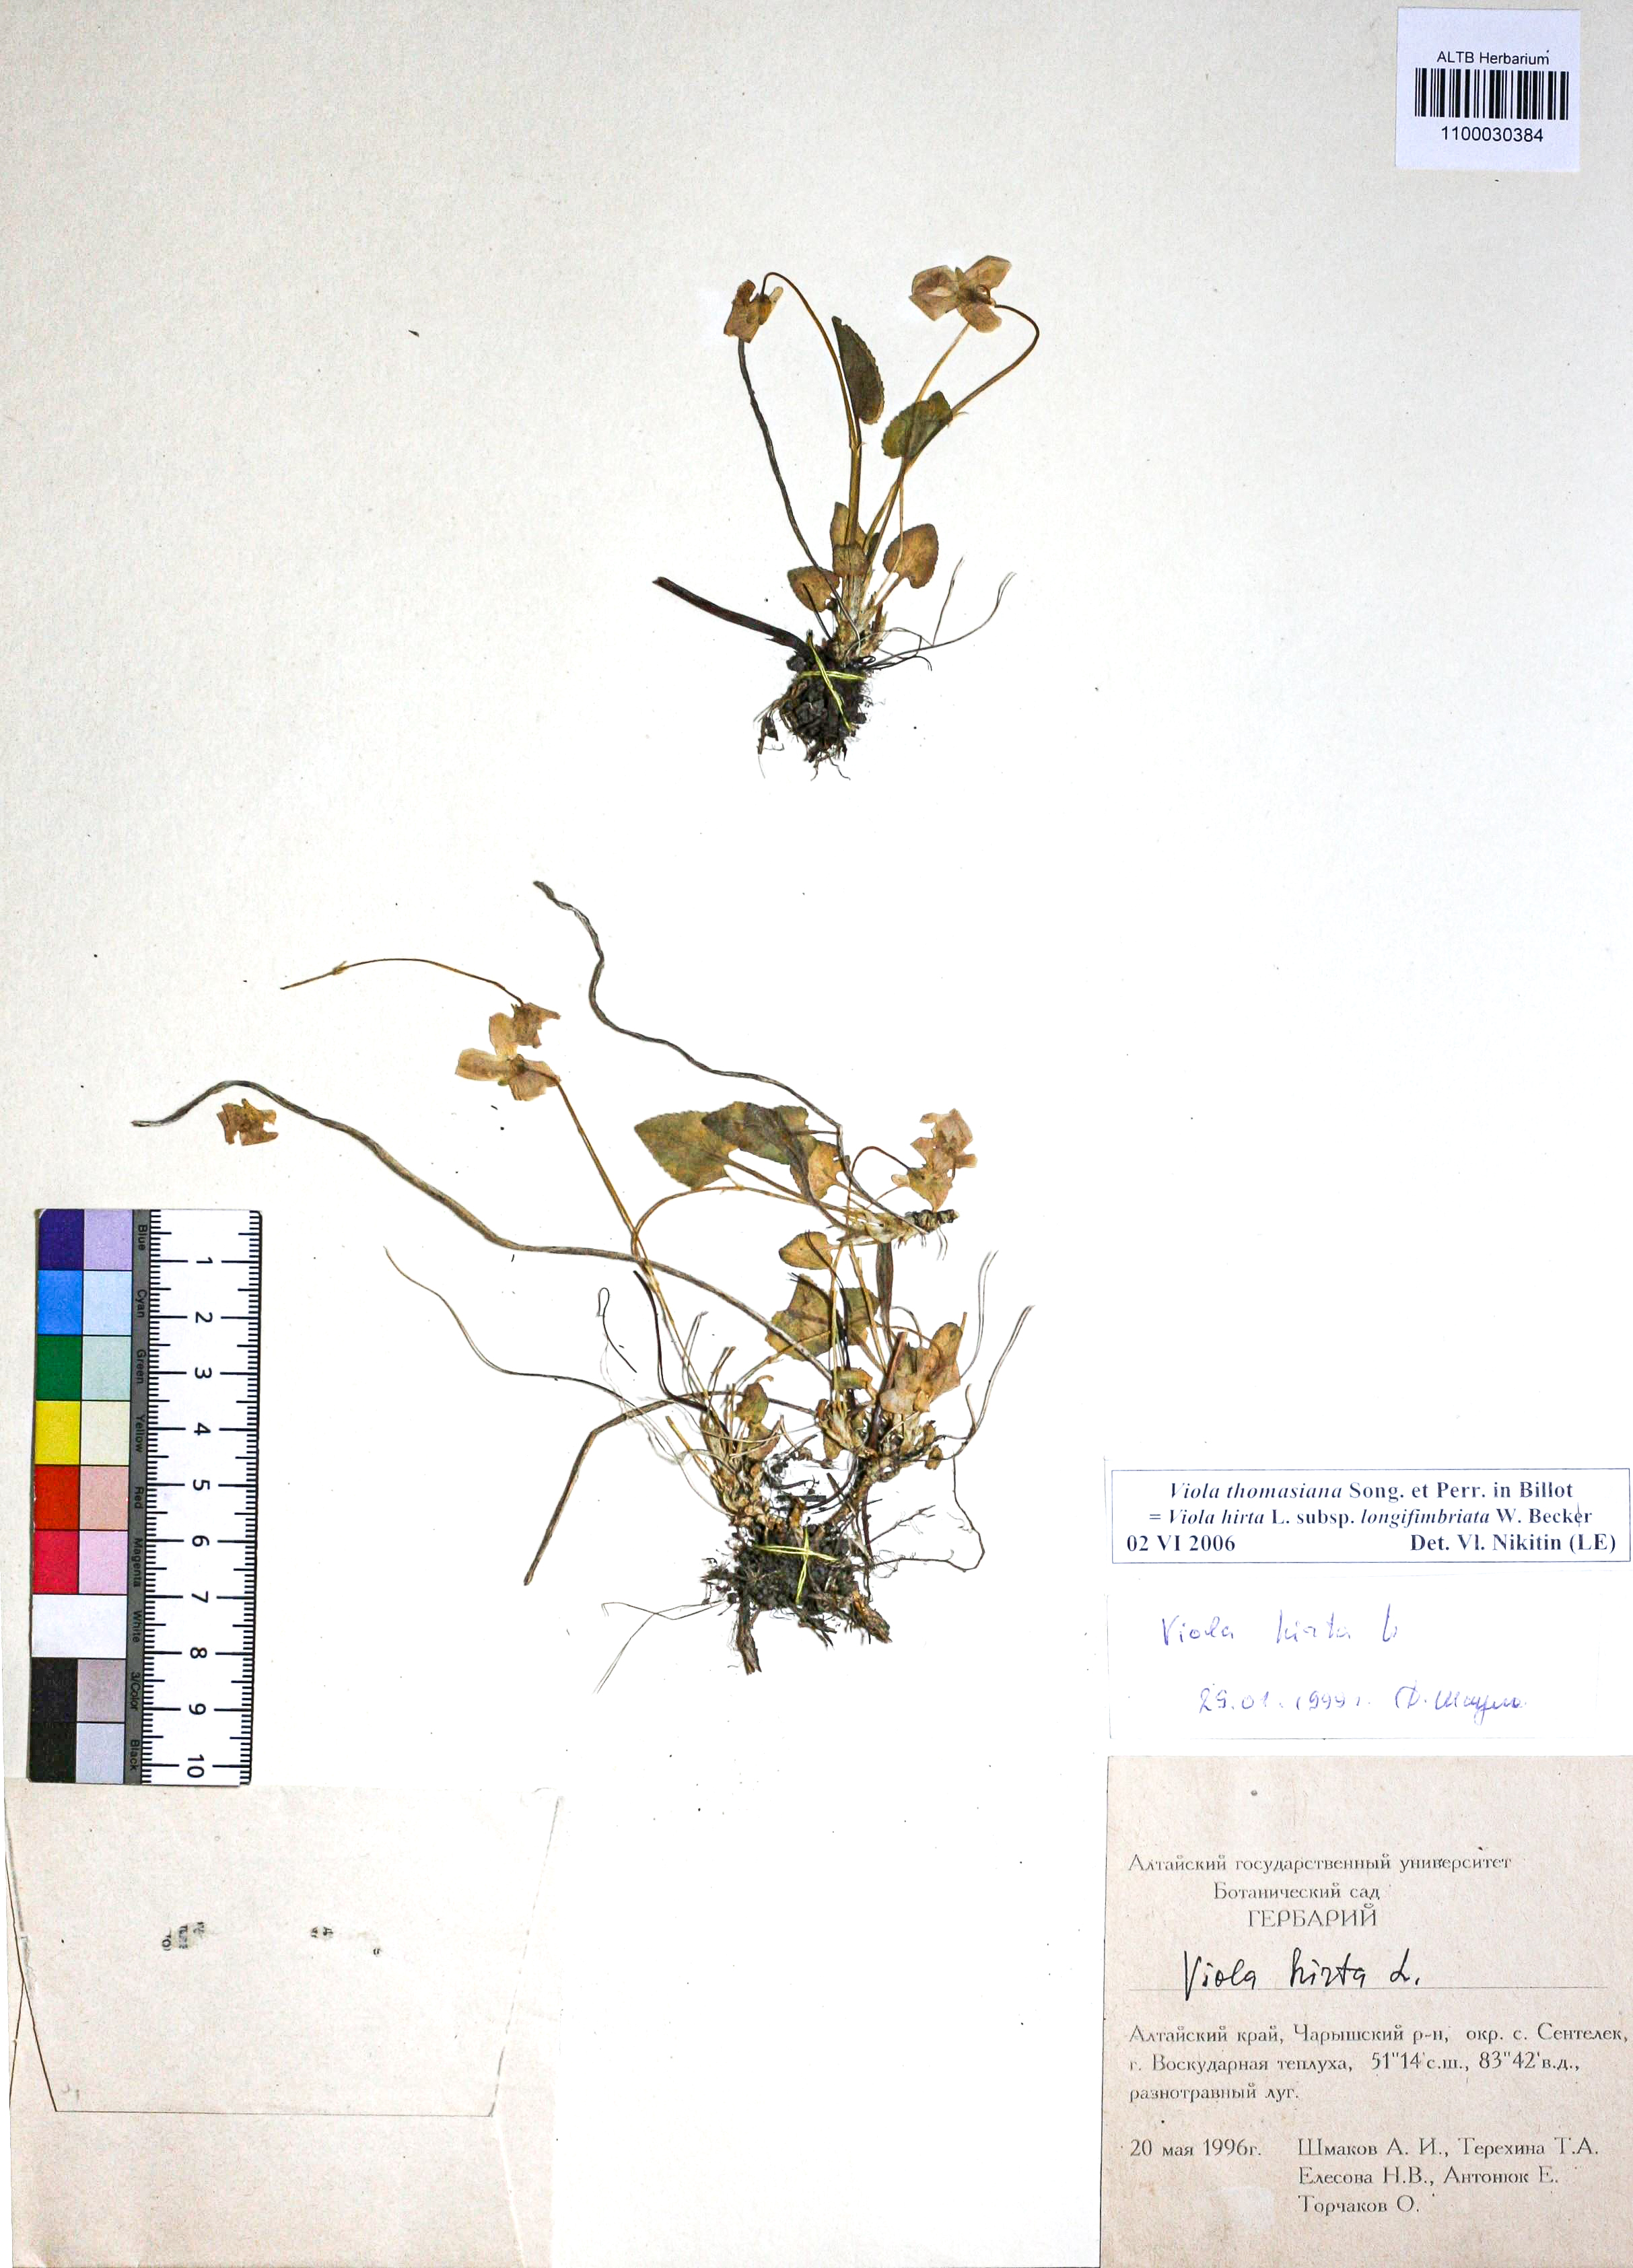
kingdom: Plantae
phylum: Tracheophyta
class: Magnoliopsida
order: Malpighiales
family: Violaceae
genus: Viola
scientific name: Viola thomasiana
